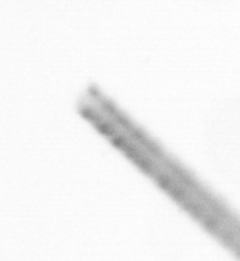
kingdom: Chromista
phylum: Ochrophyta
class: Bacillariophyceae
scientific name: Bacillariophyceae
